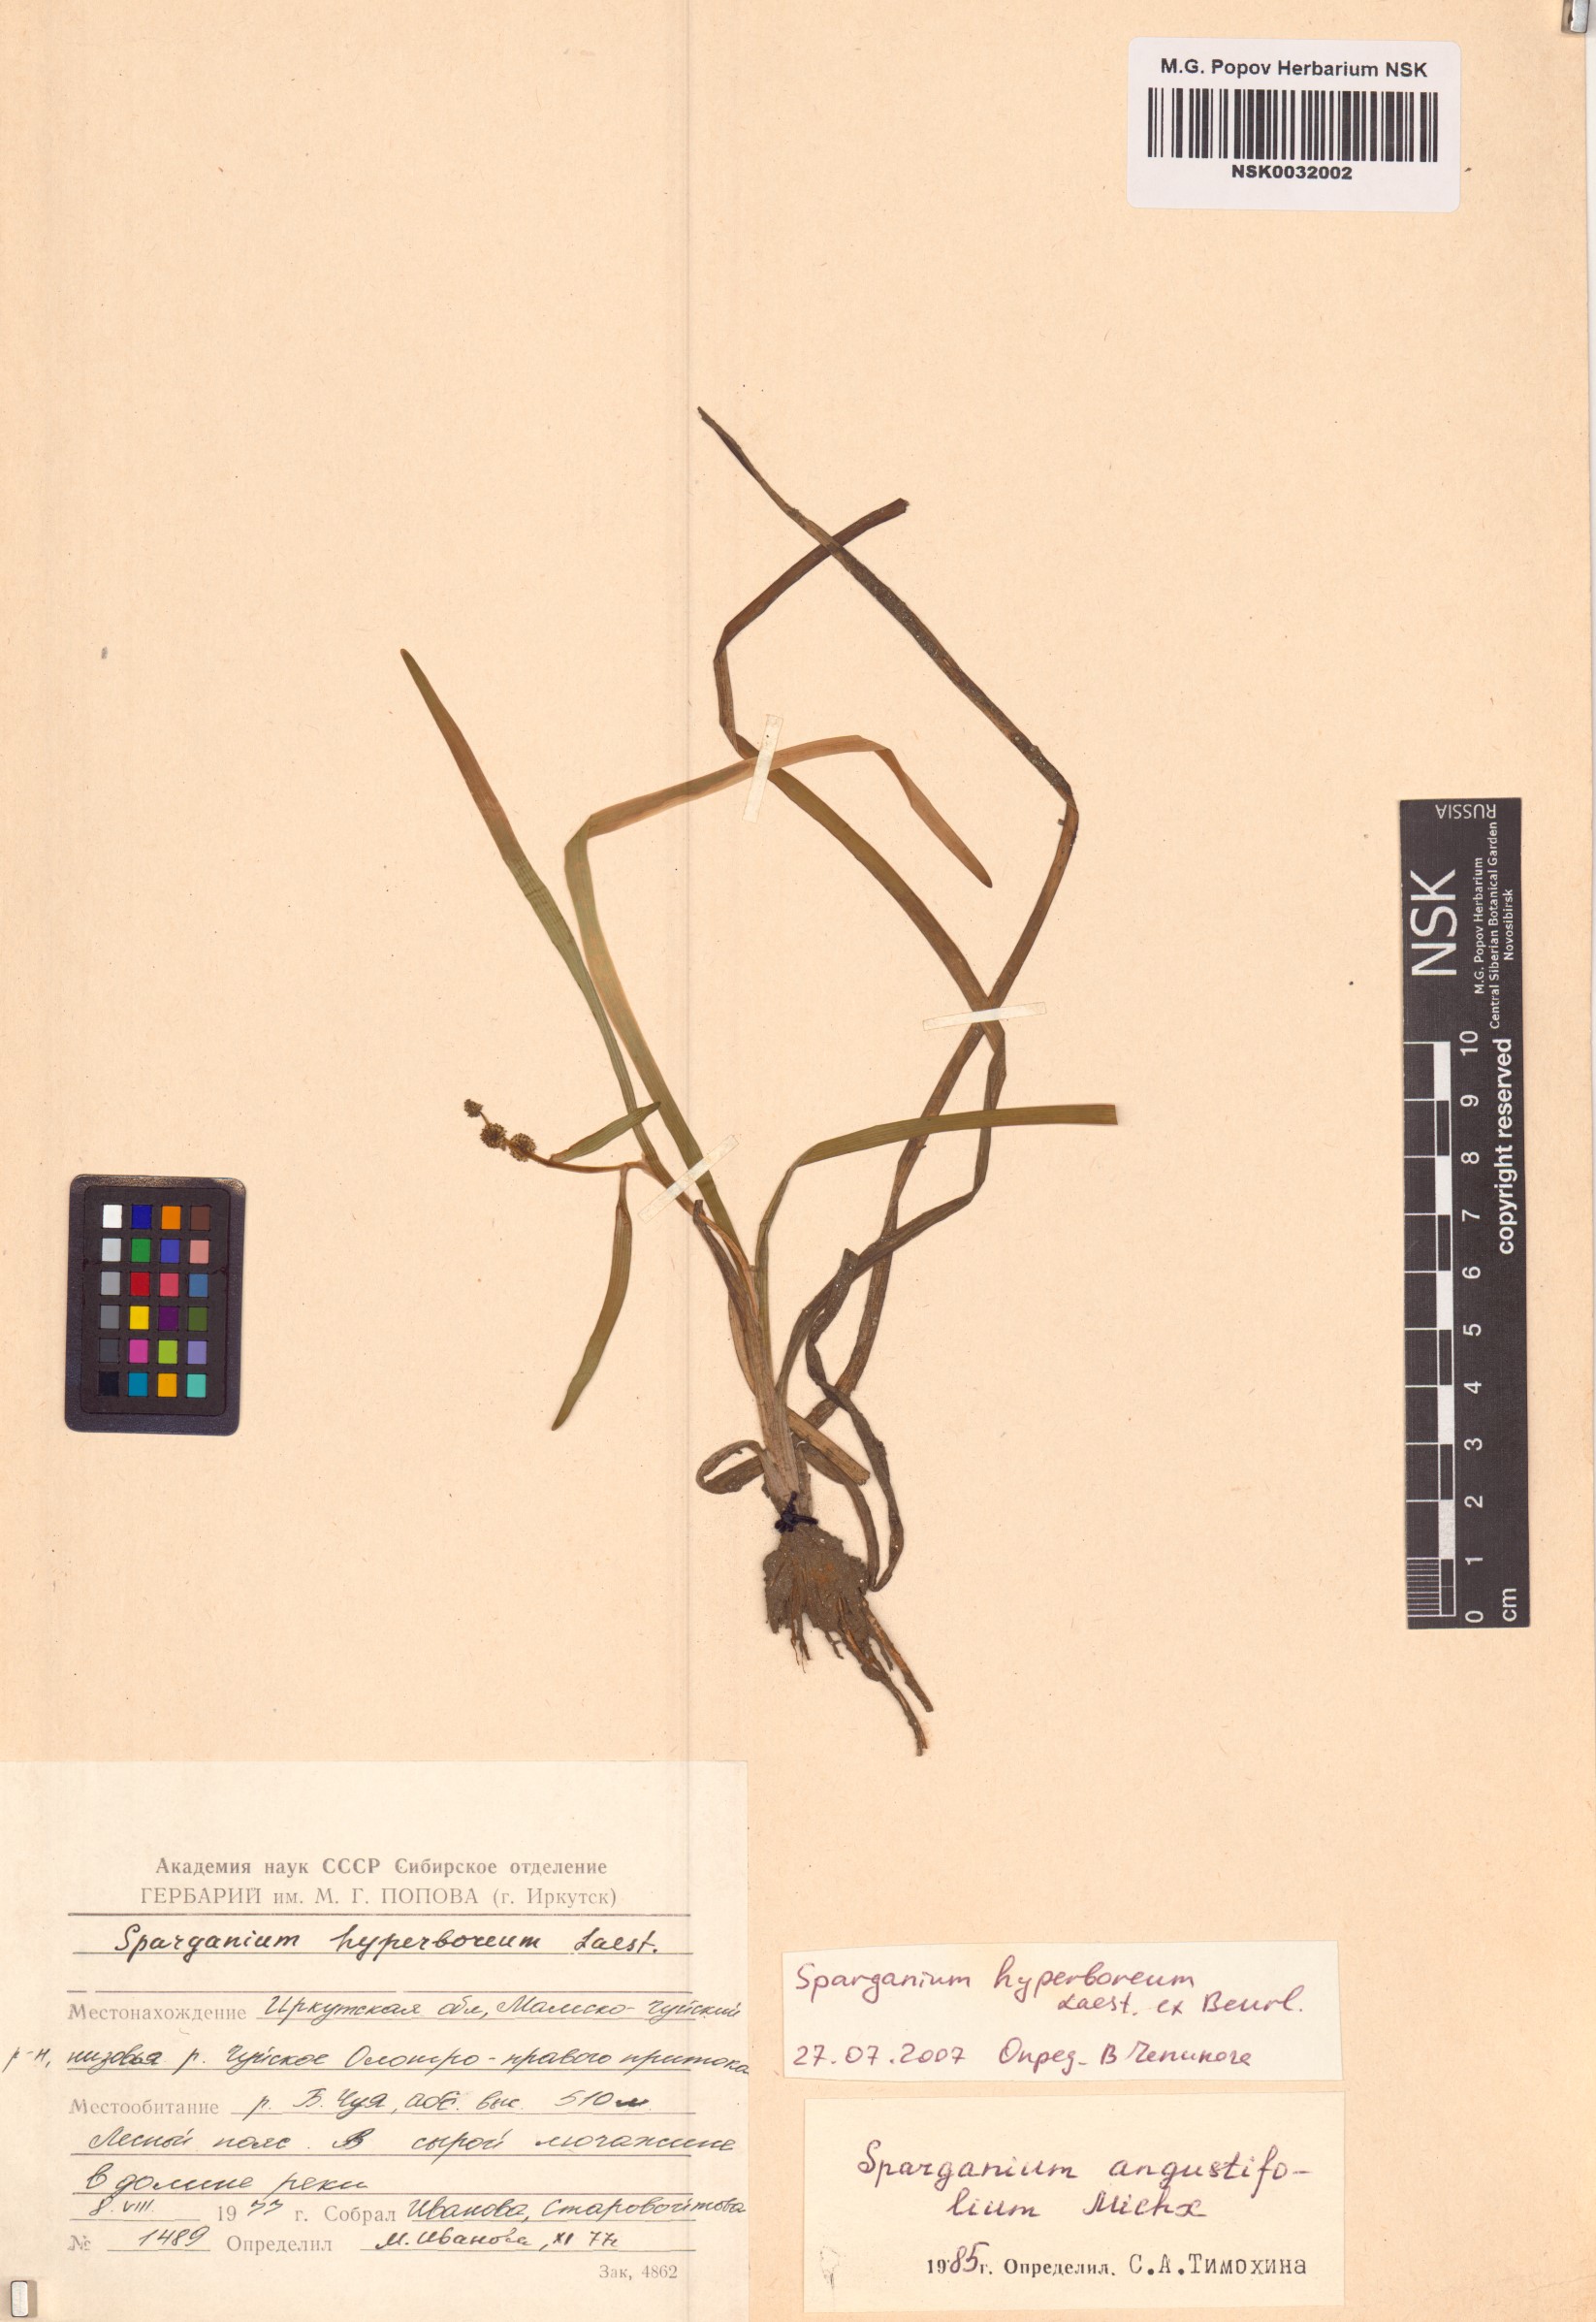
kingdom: Plantae
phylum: Tracheophyta
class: Liliopsida
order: Poales
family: Typhaceae
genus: Sparganium
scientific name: Sparganium hyperboreum
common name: Arctic burreed
